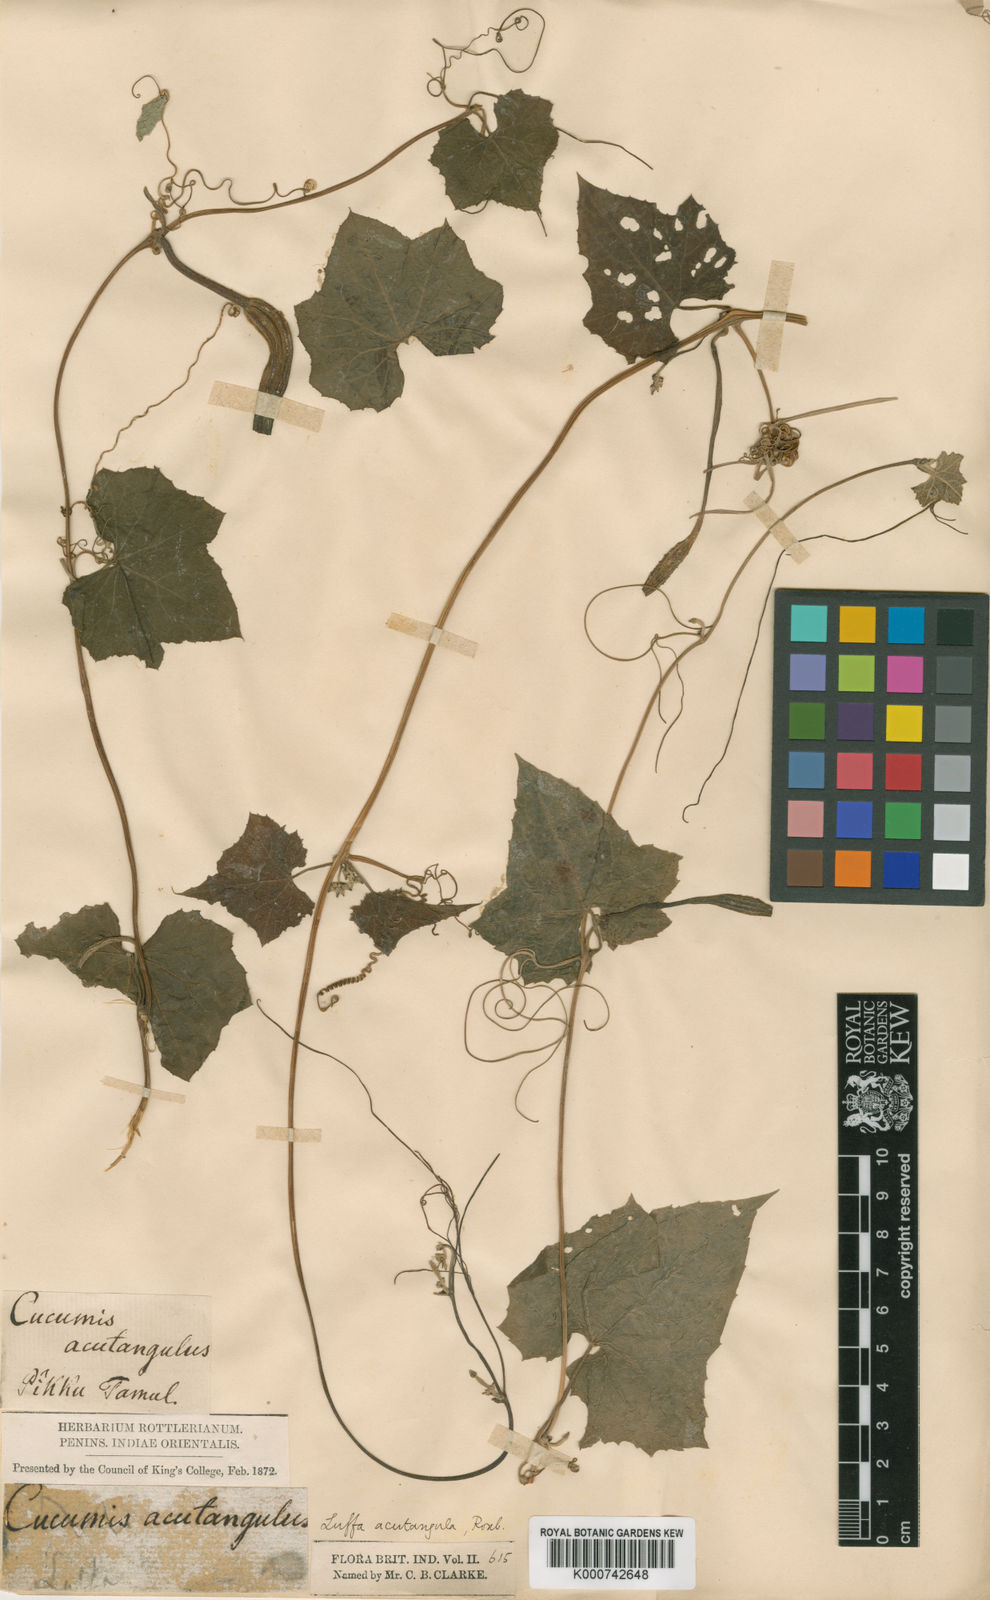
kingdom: Plantae
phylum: Tracheophyta
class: Magnoliopsida
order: Cucurbitales
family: Cucurbitaceae
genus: Luffa
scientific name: Luffa acutangula
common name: Sinkwa towelsponge
